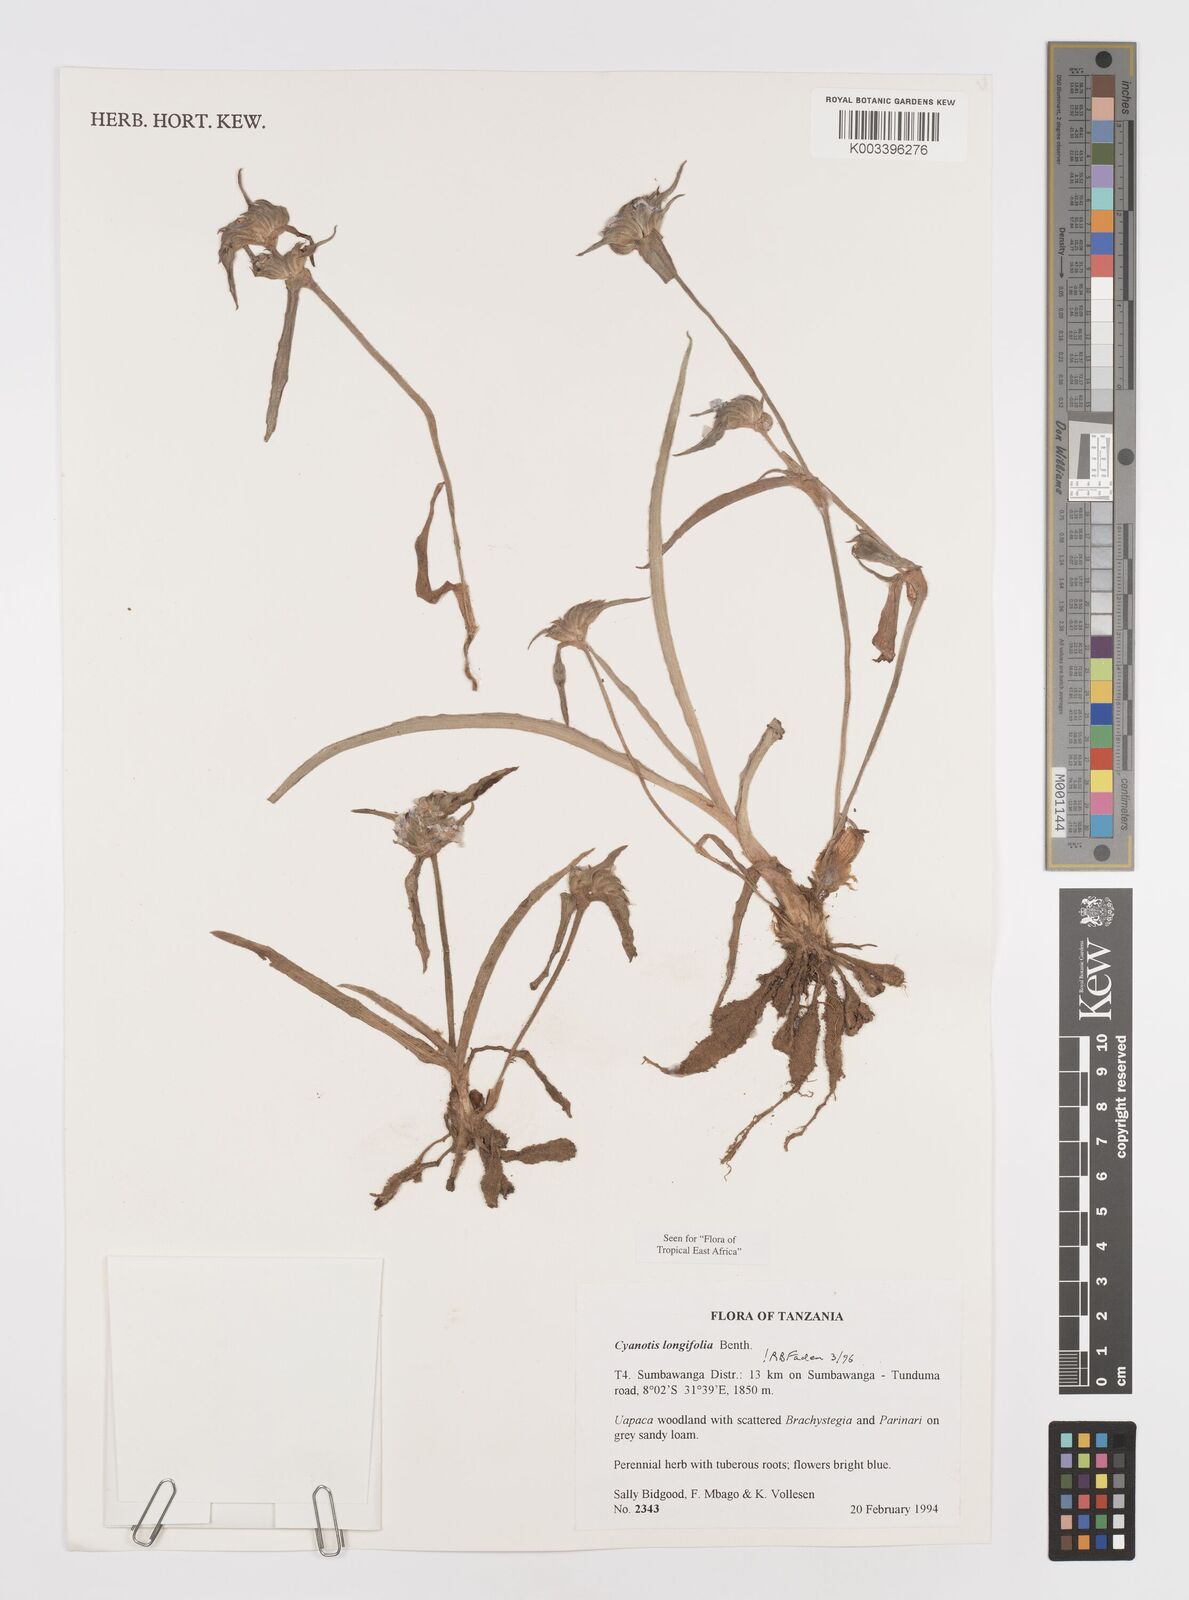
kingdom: Plantae
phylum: Tracheophyta
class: Liliopsida
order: Commelinales
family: Commelinaceae
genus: Cyanotis
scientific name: Cyanotis longifolia
